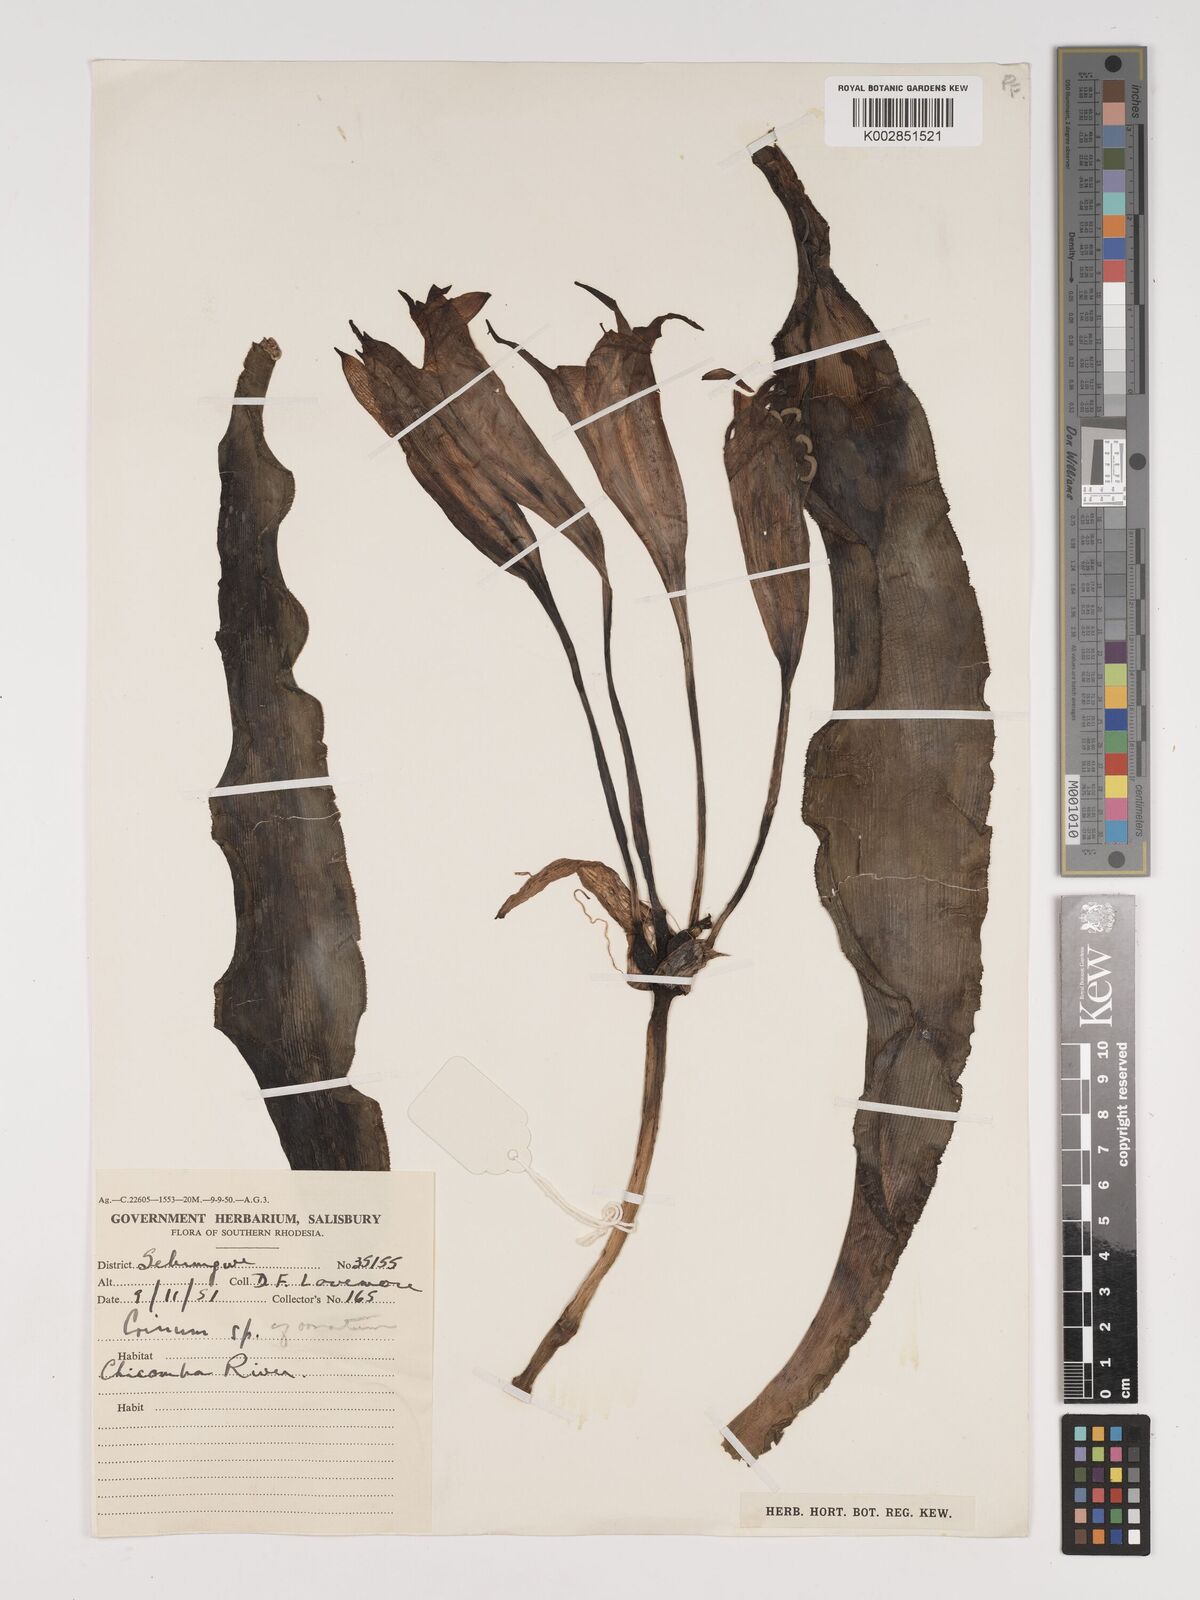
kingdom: Plantae
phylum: Tracheophyta
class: Liliopsida
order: Asparagales
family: Amaryllidaceae
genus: Crinum
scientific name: Crinum crassicaule
